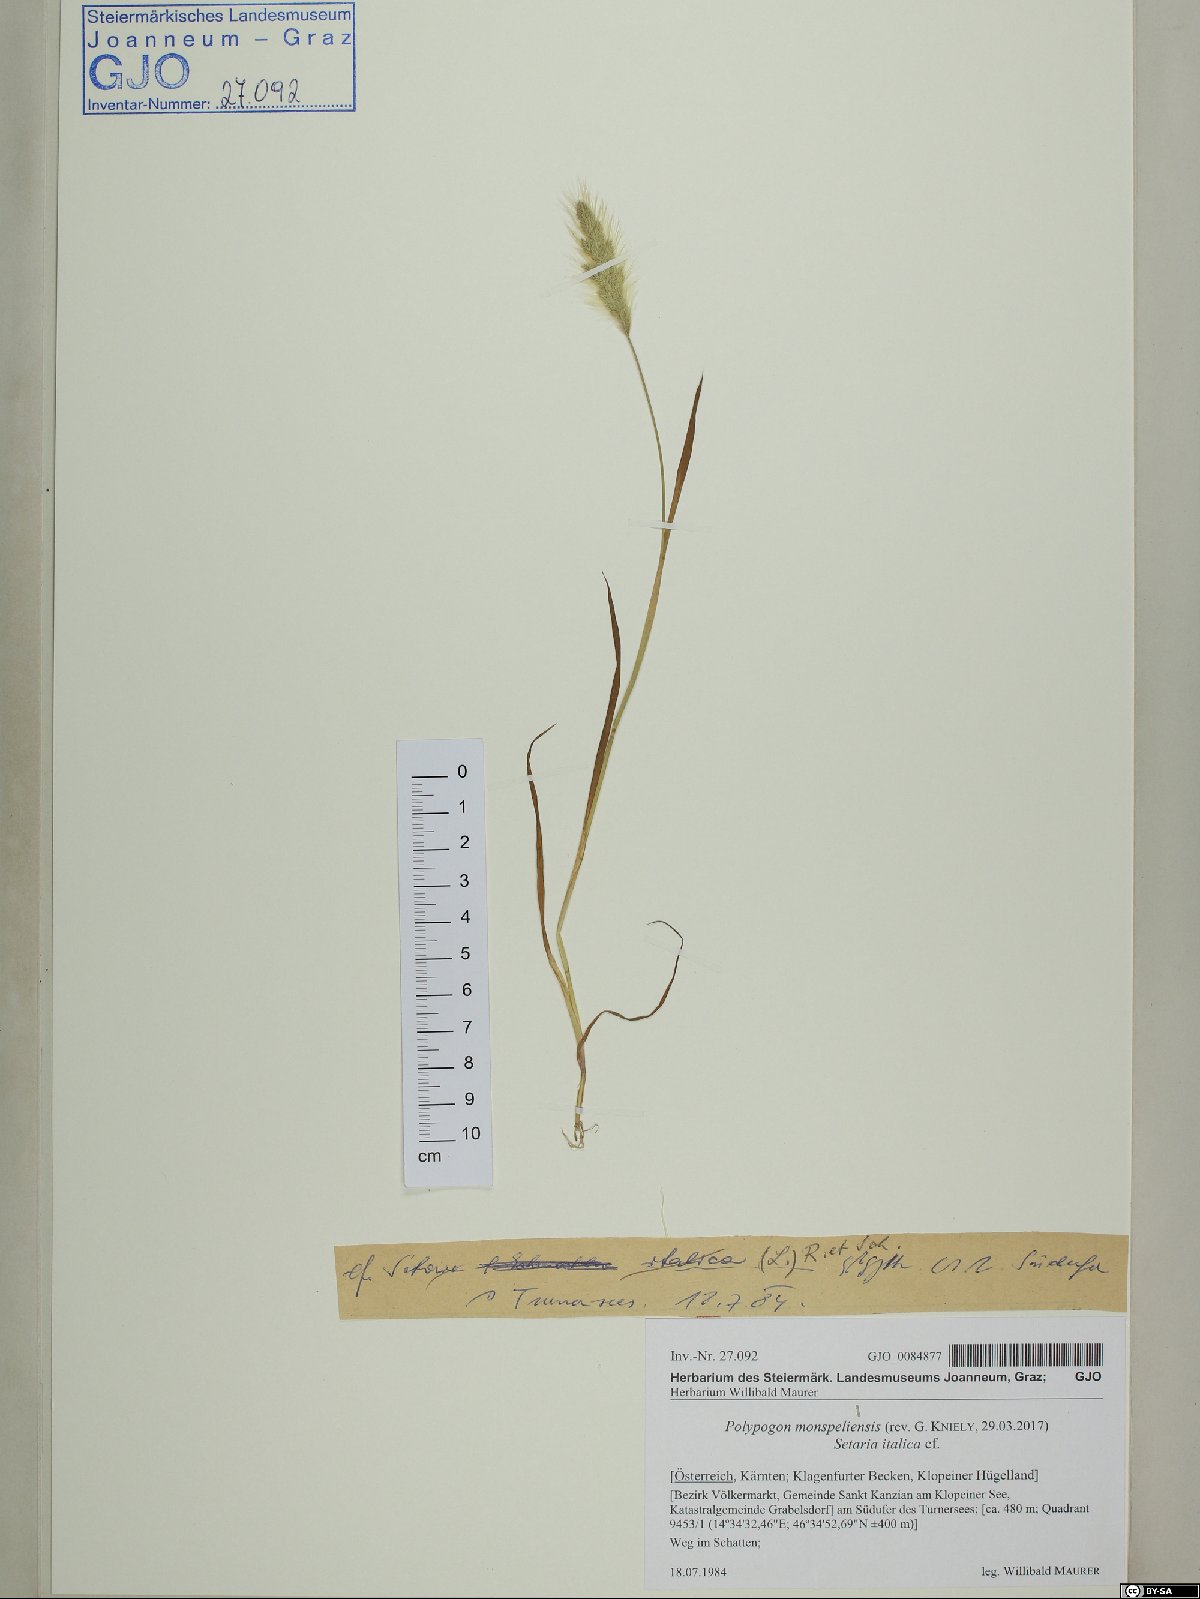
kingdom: Plantae
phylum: Tracheophyta
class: Liliopsida
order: Poales
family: Poaceae
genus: Polypogon
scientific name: Polypogon monspeliensis
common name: Annual rabbitsfoot grass
